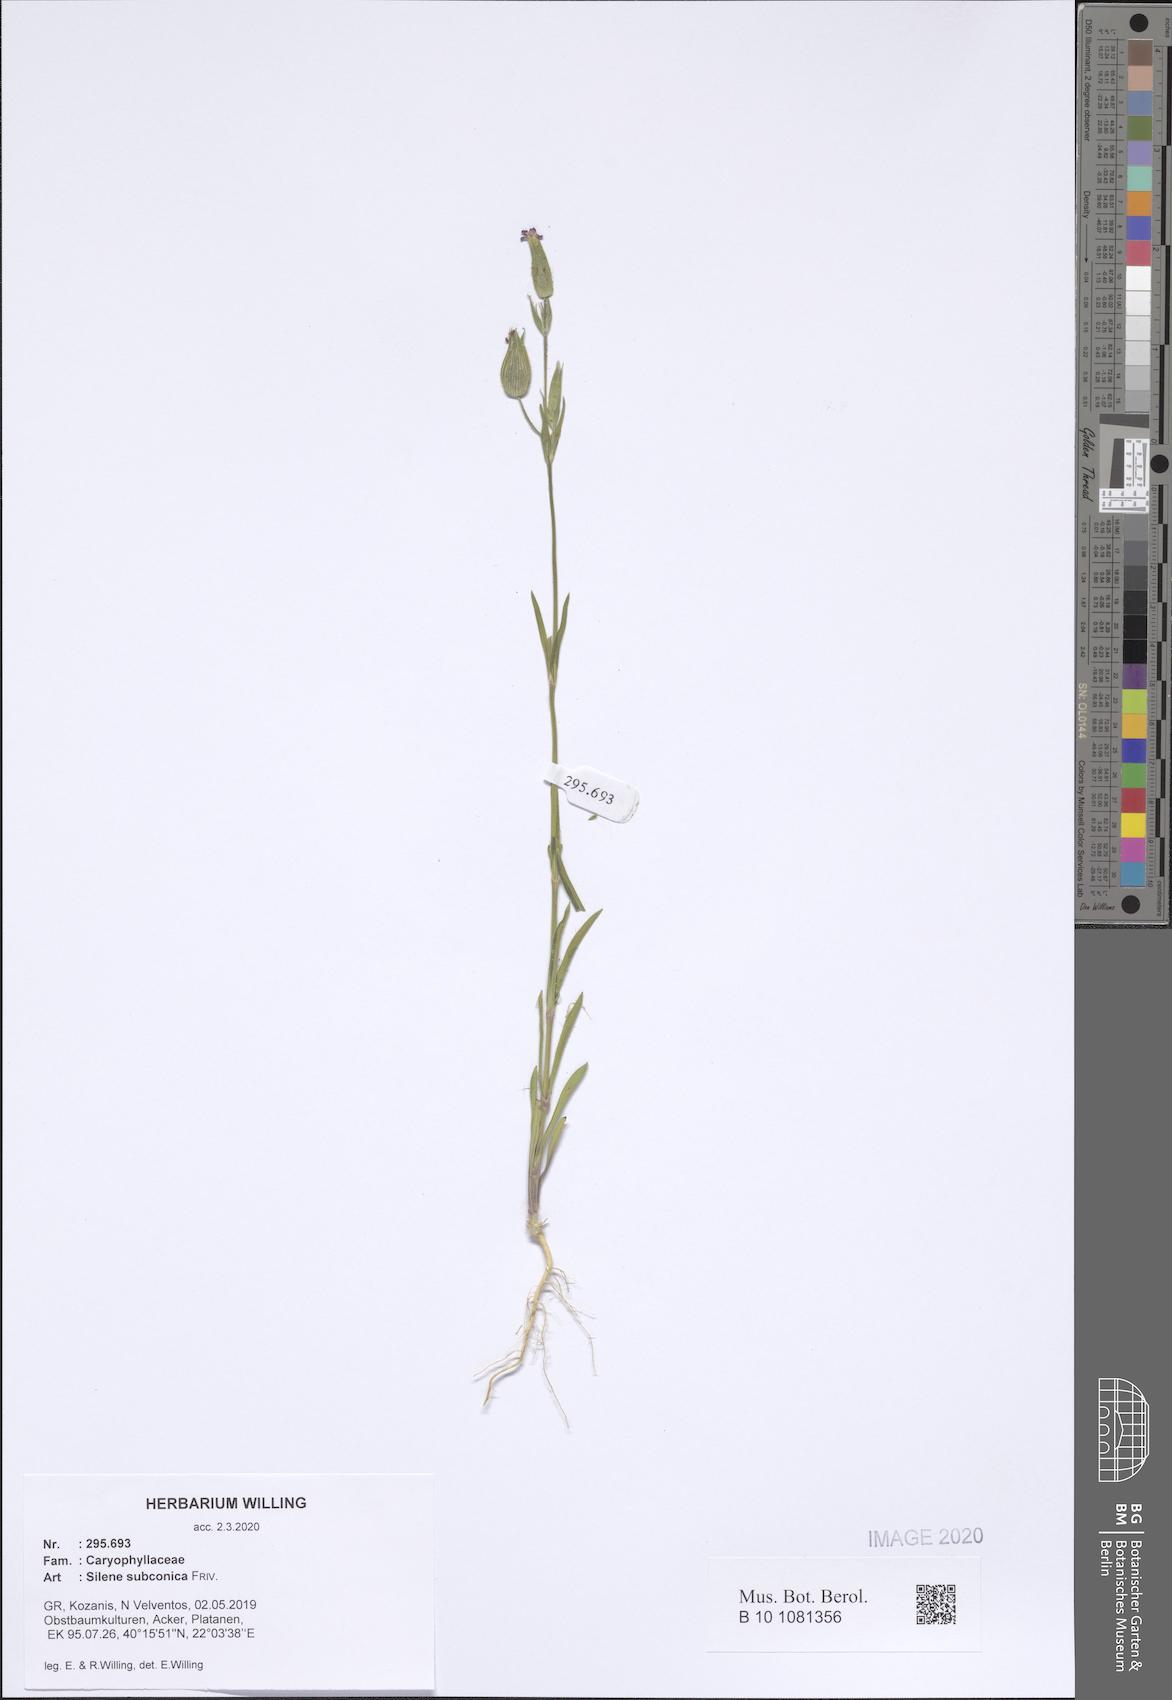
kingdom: Plantae
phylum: Tracheophyta
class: Magnoliopsida
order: Caryophyllales
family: Caryophyllaceae
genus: Silene
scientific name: Silene subconica
